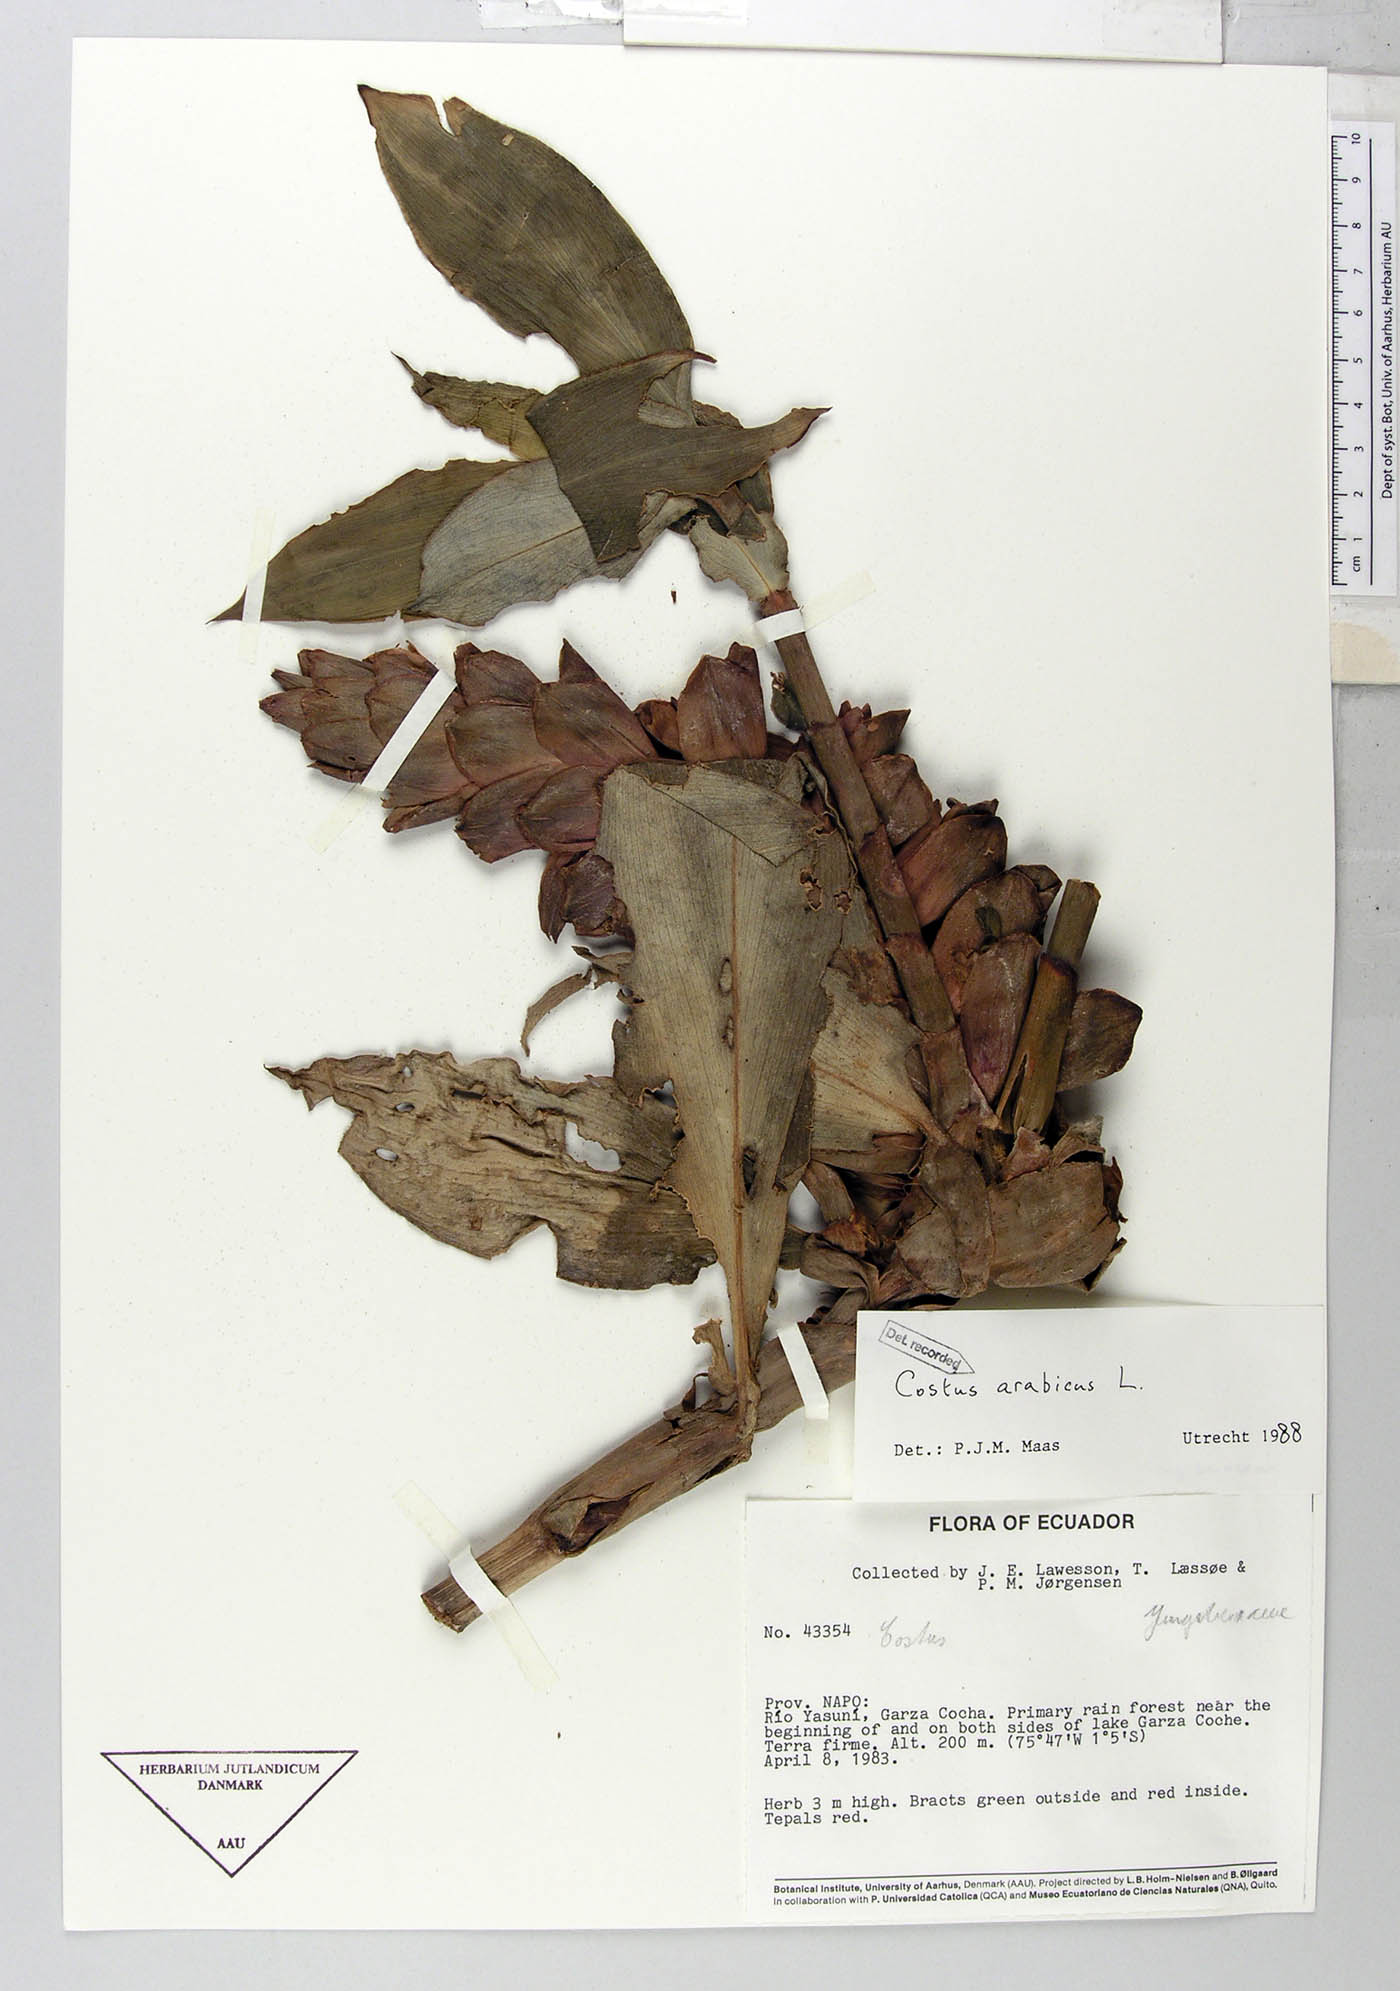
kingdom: Plantae
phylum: Tracheophyta
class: Liliopsida
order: Zingiberales
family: Costaceae
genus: Costus
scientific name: Costus arabicus
